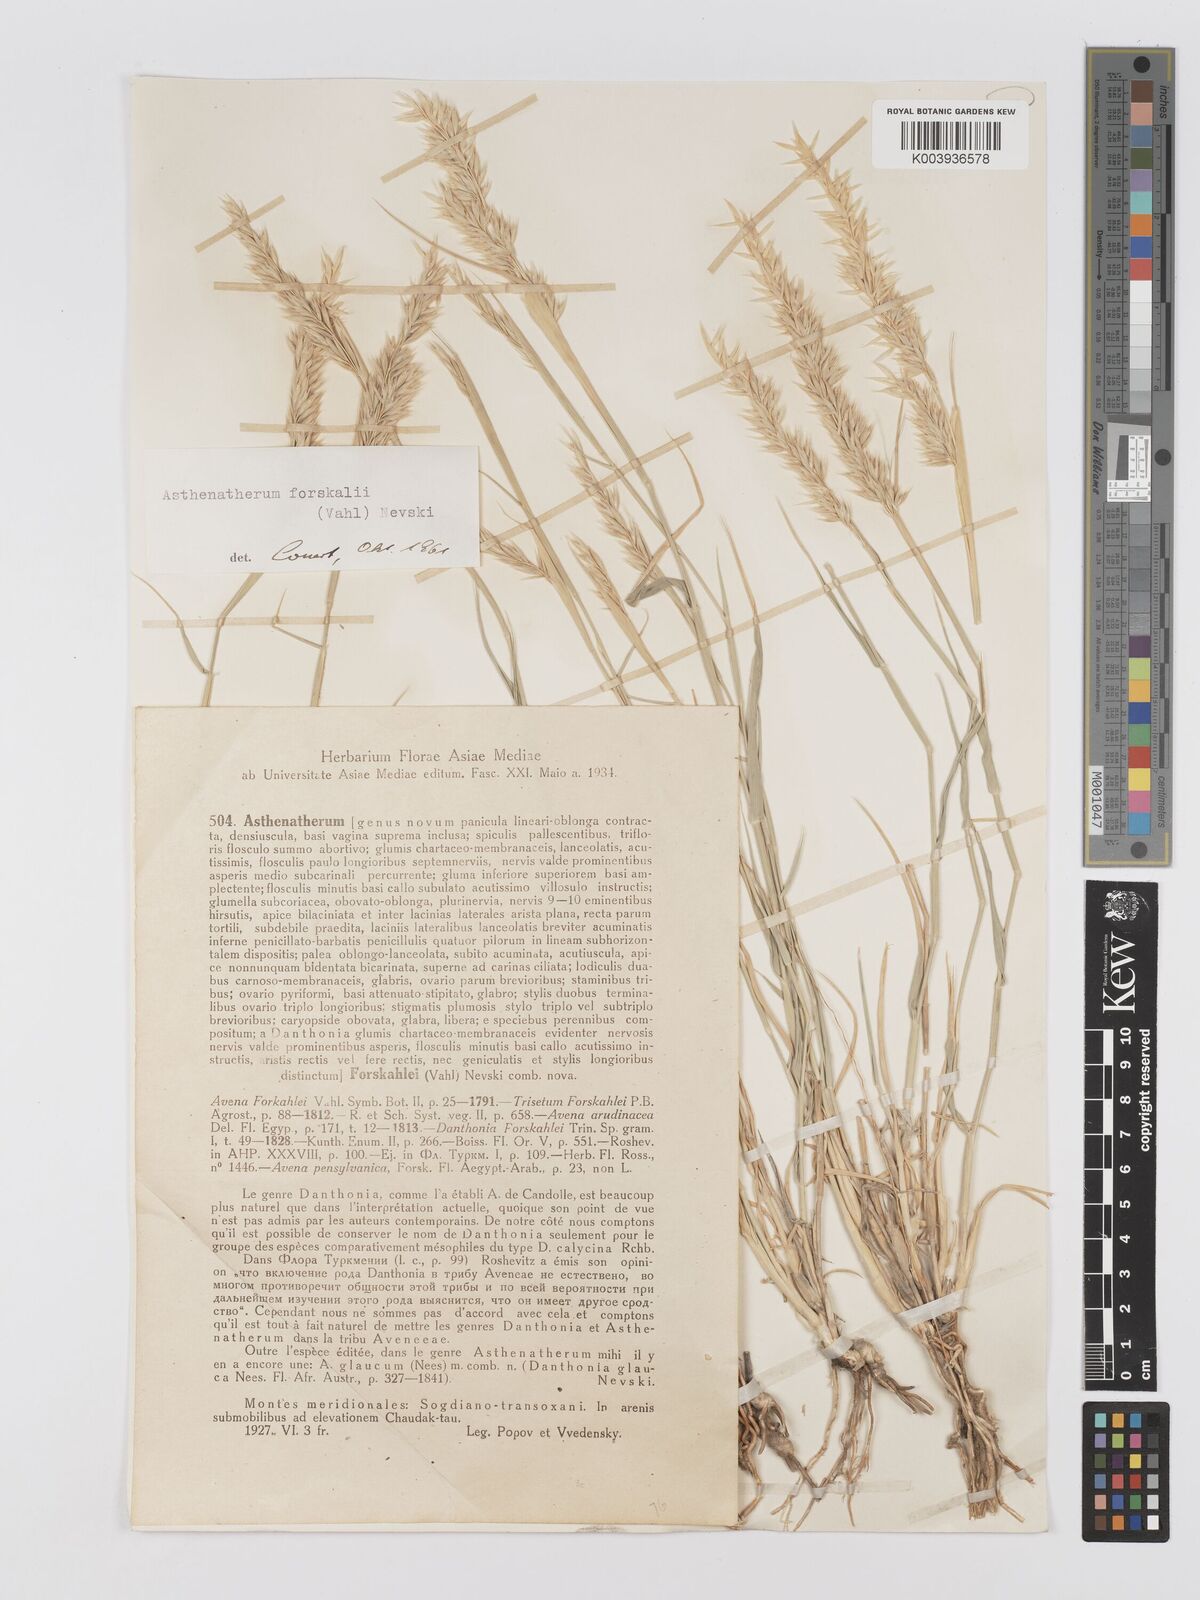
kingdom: Plantae
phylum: Tracheophyta
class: Liliopsida
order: Poales
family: Poaceae
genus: Centropodia
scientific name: Centropodia forskaolii
